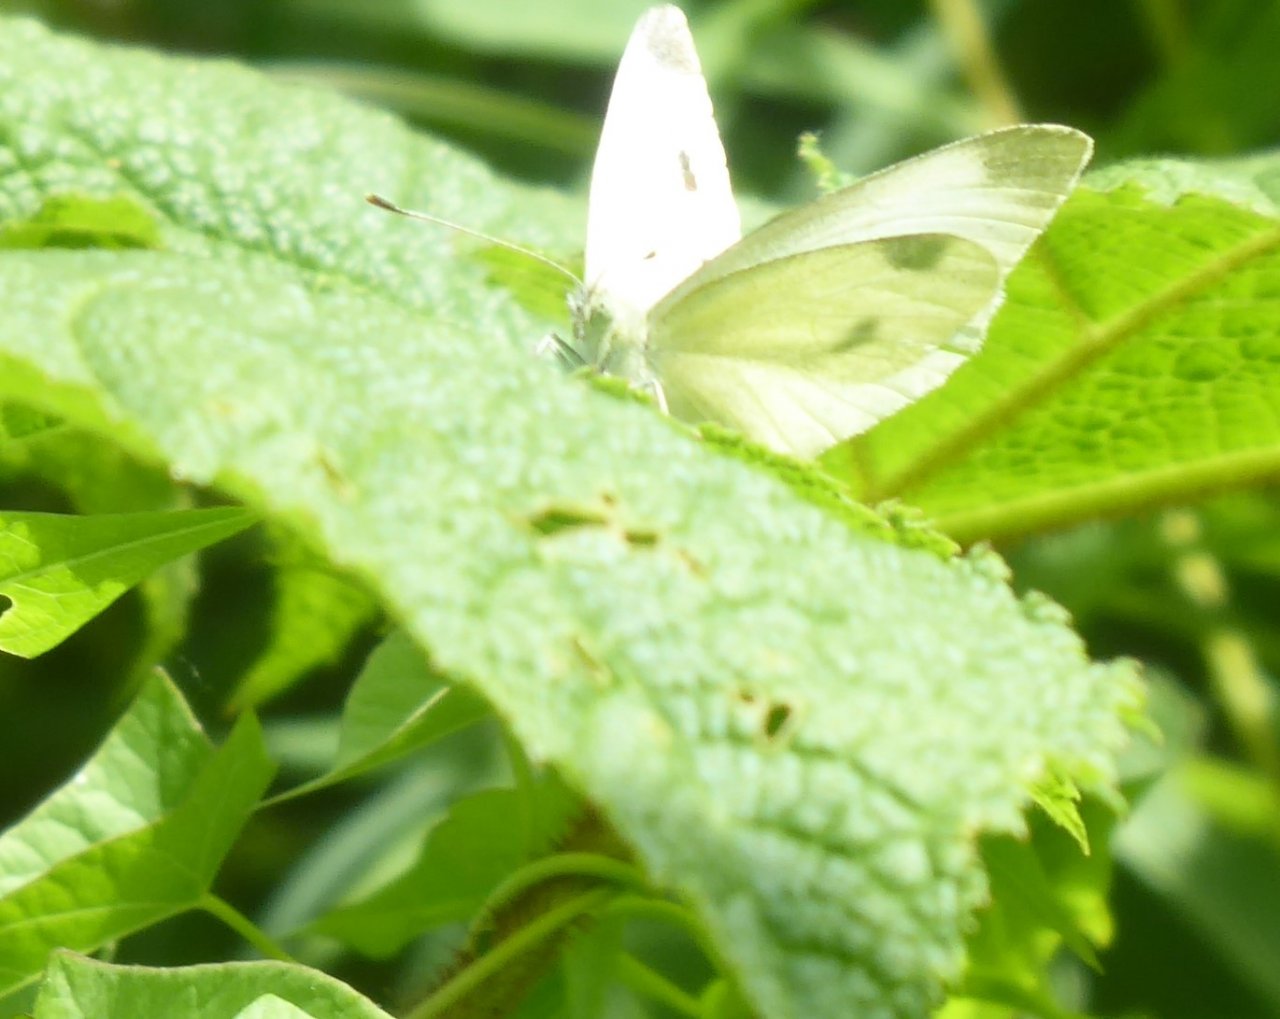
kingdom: Animalia
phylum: Arthropoda
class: Insecta
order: Lepidoptera
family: Pieridae
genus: Pieris
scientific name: Pieris rapae
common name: Cabbage White
